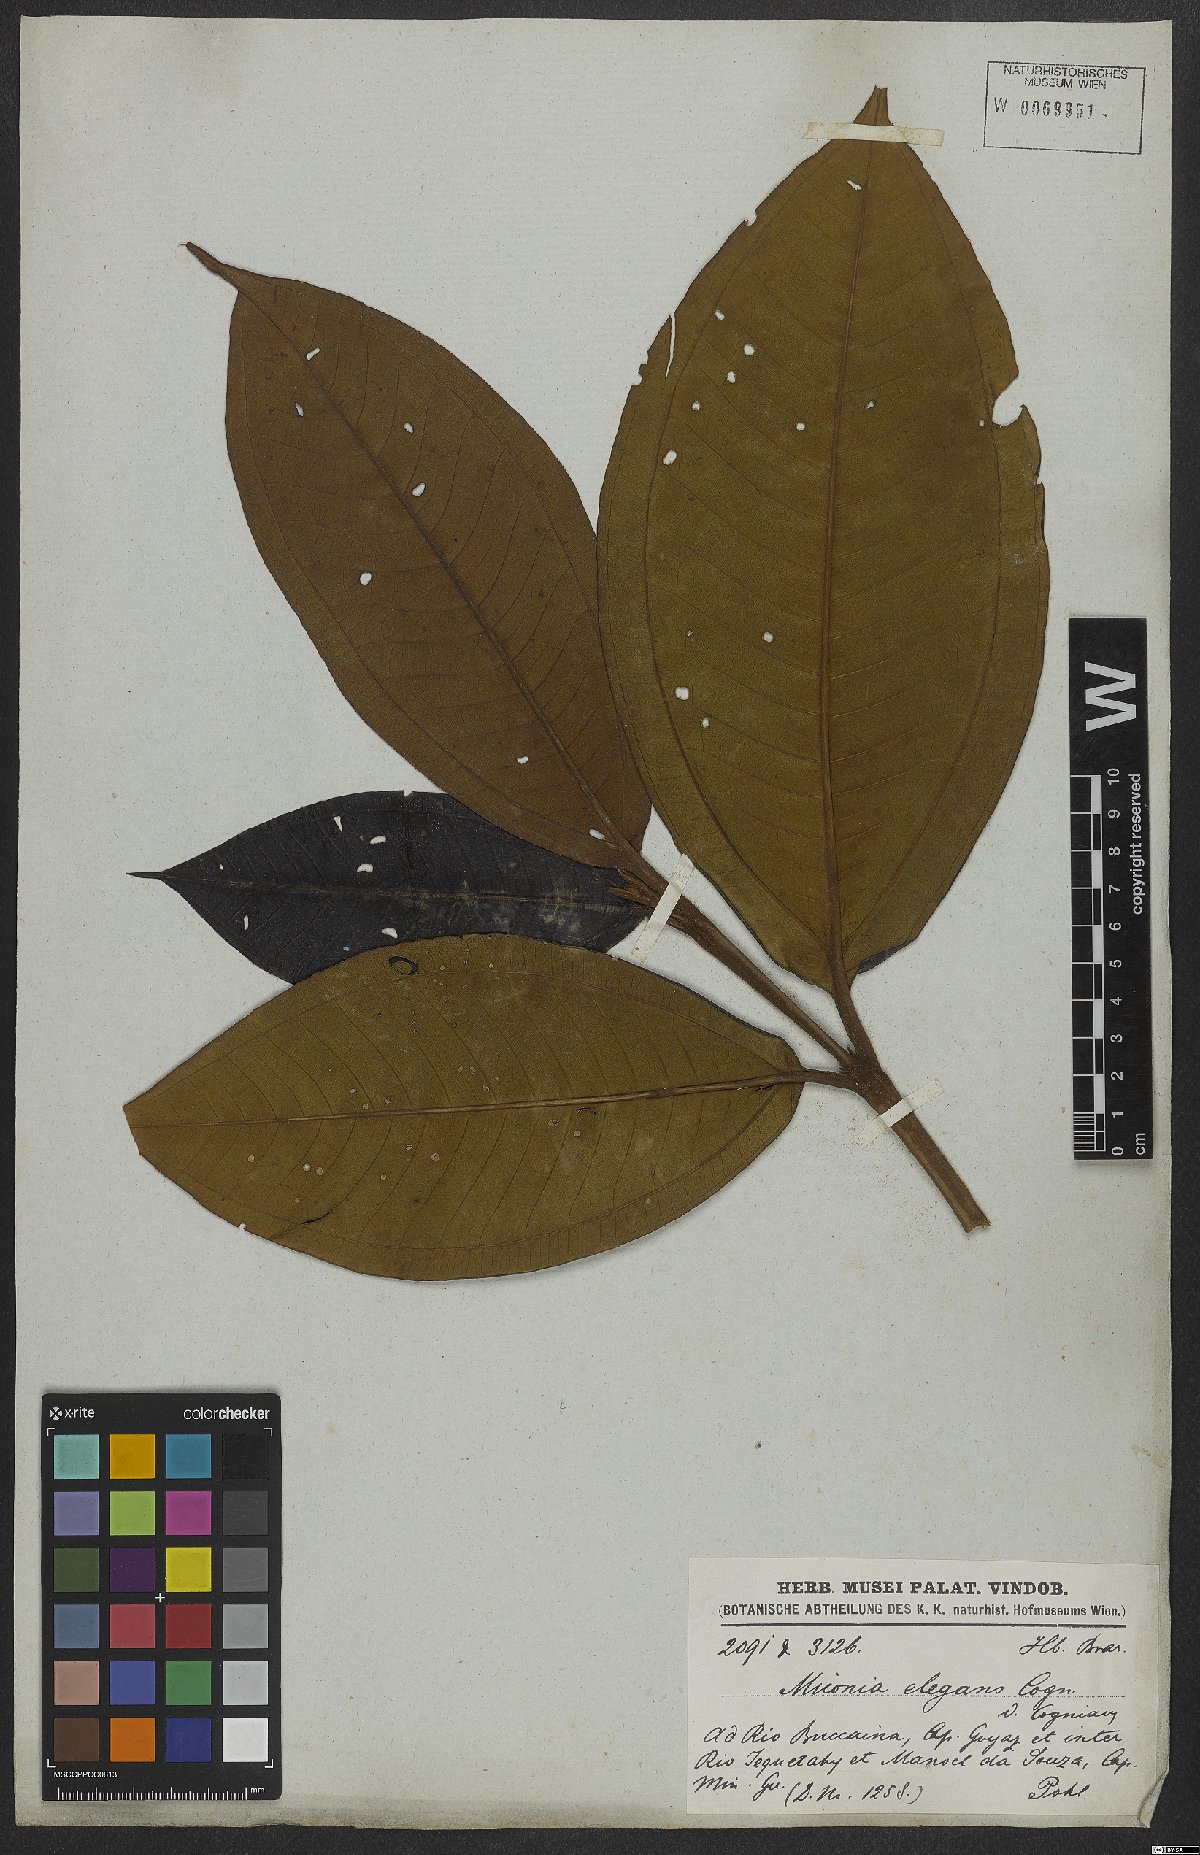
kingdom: Plantae
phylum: Tracheophyta
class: Magnoliopsida
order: Myrtales
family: Melastomataceae
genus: Miconia
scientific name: Miconia elegans
